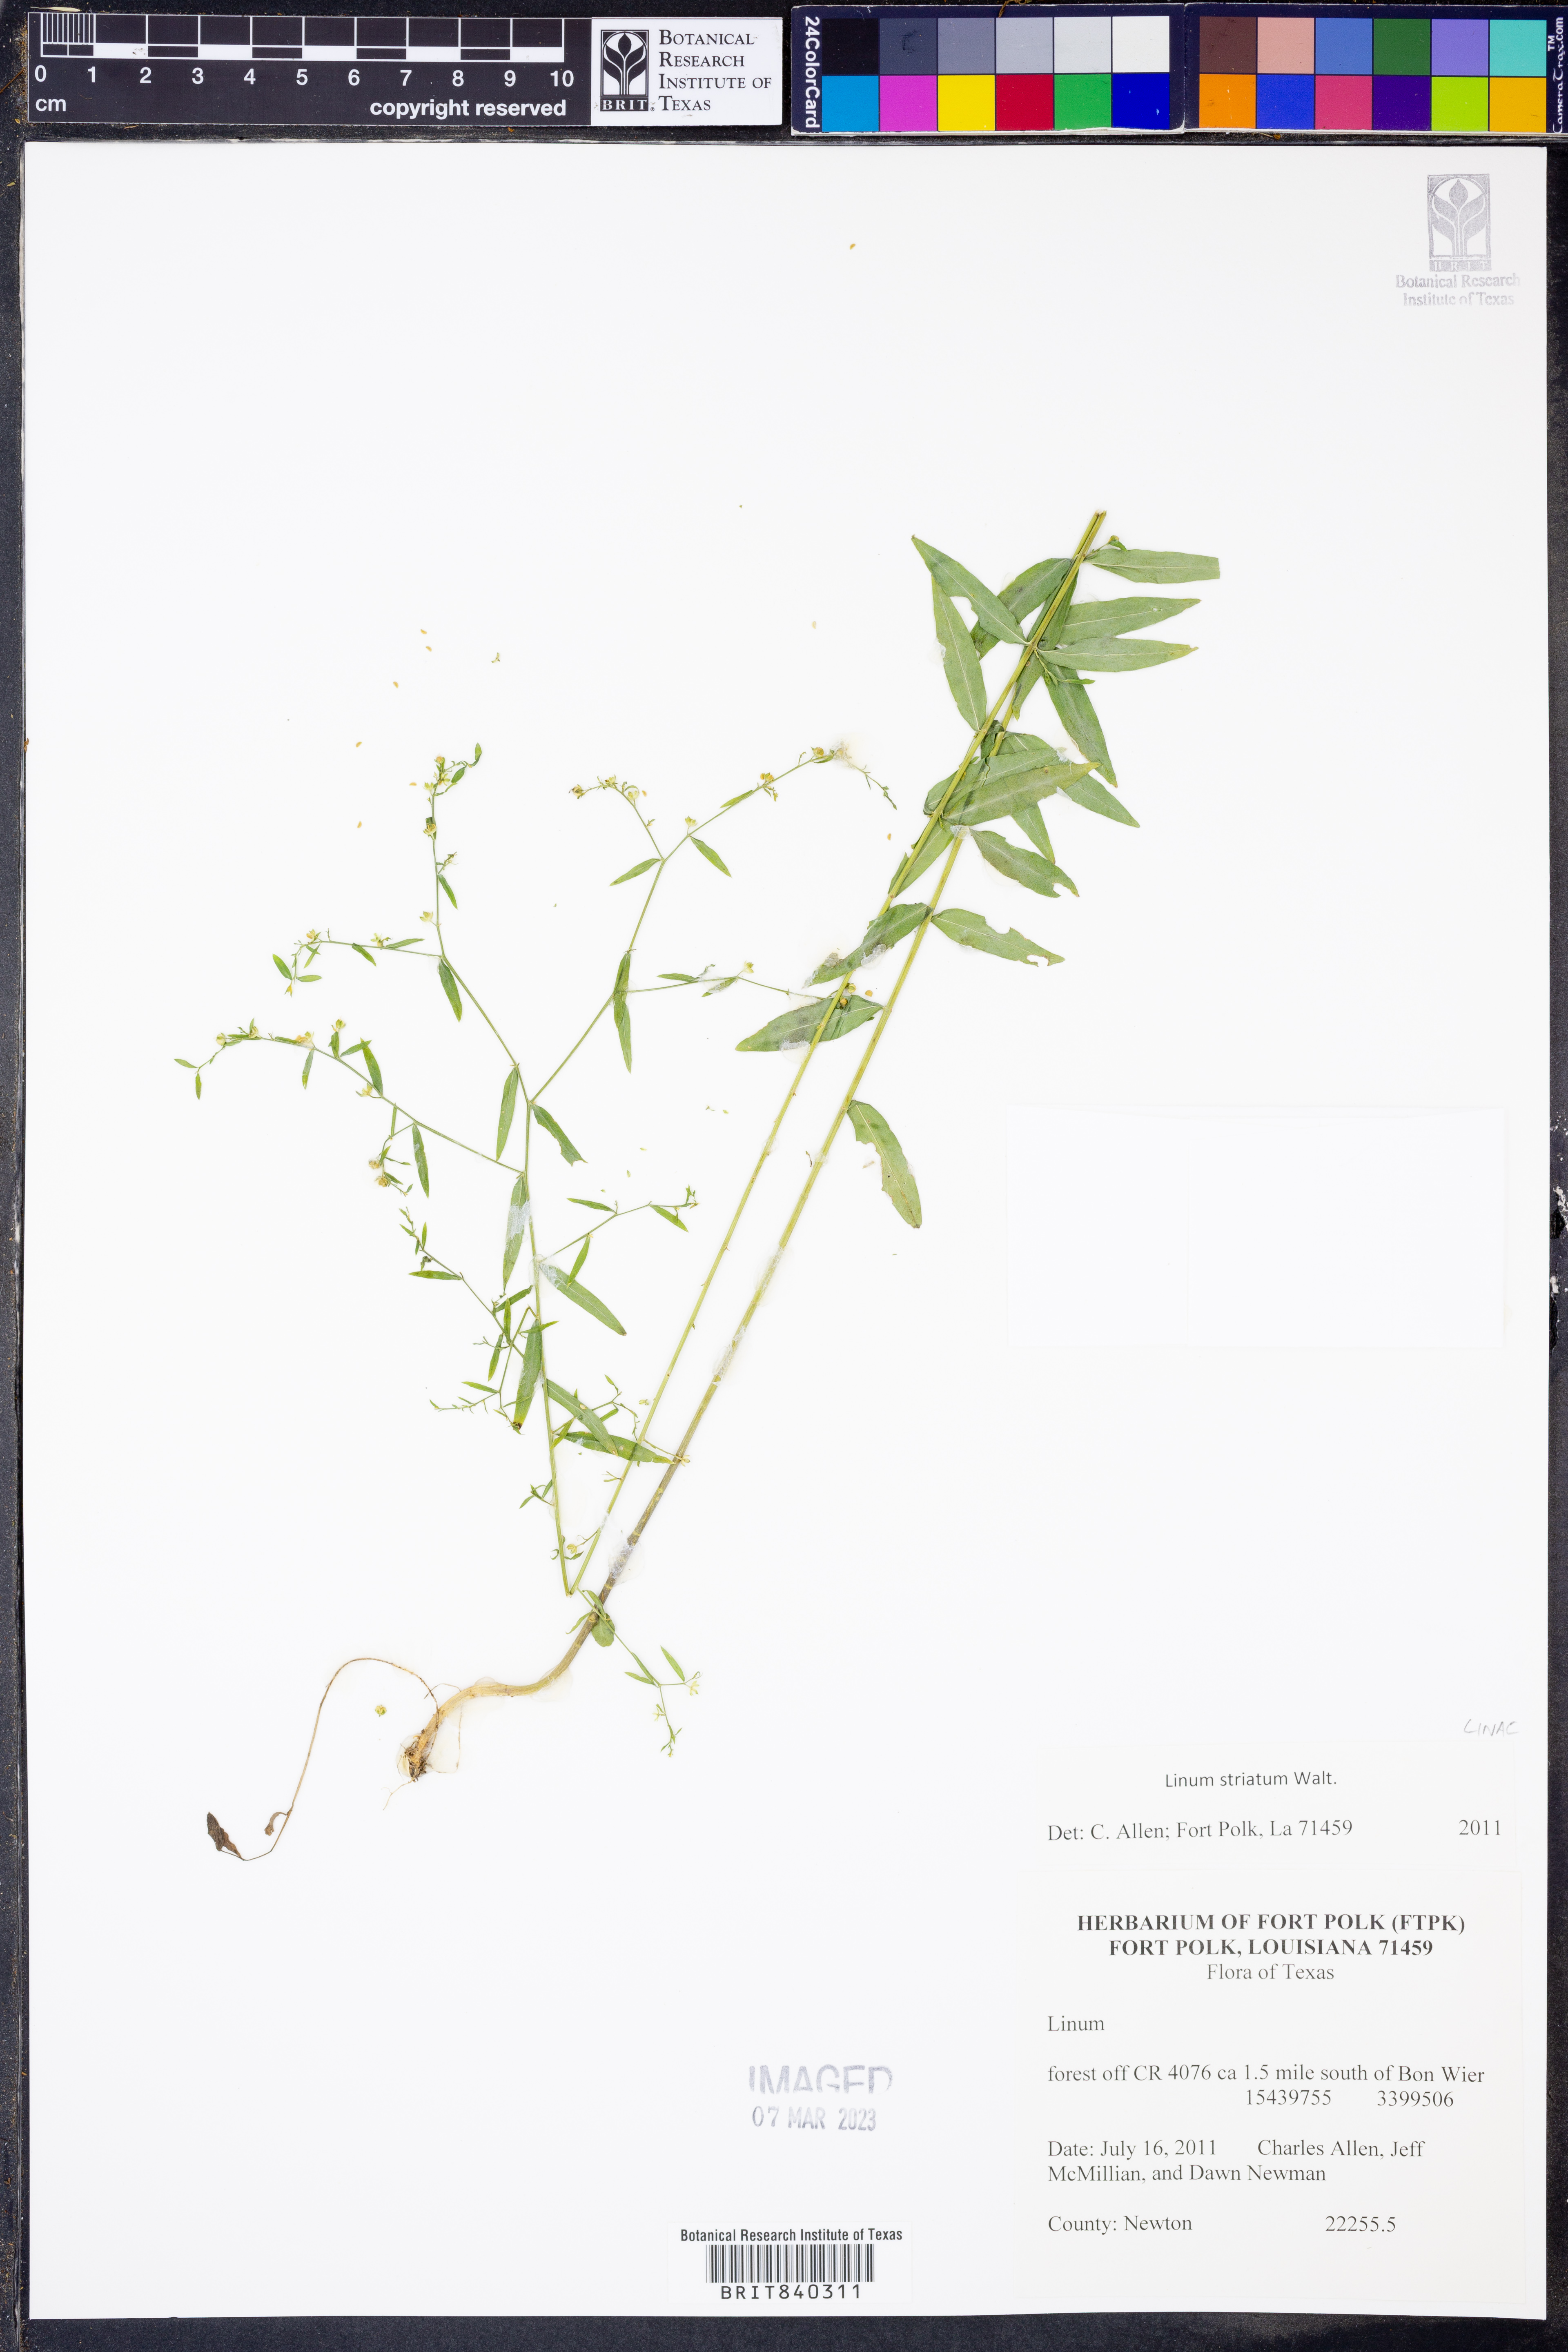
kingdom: Plantae
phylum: Tracheophyta
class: Magnoliopsida
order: Malpighiales
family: Linaceae
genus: Linum
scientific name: Linum striatum
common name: Ridged yellow flax
